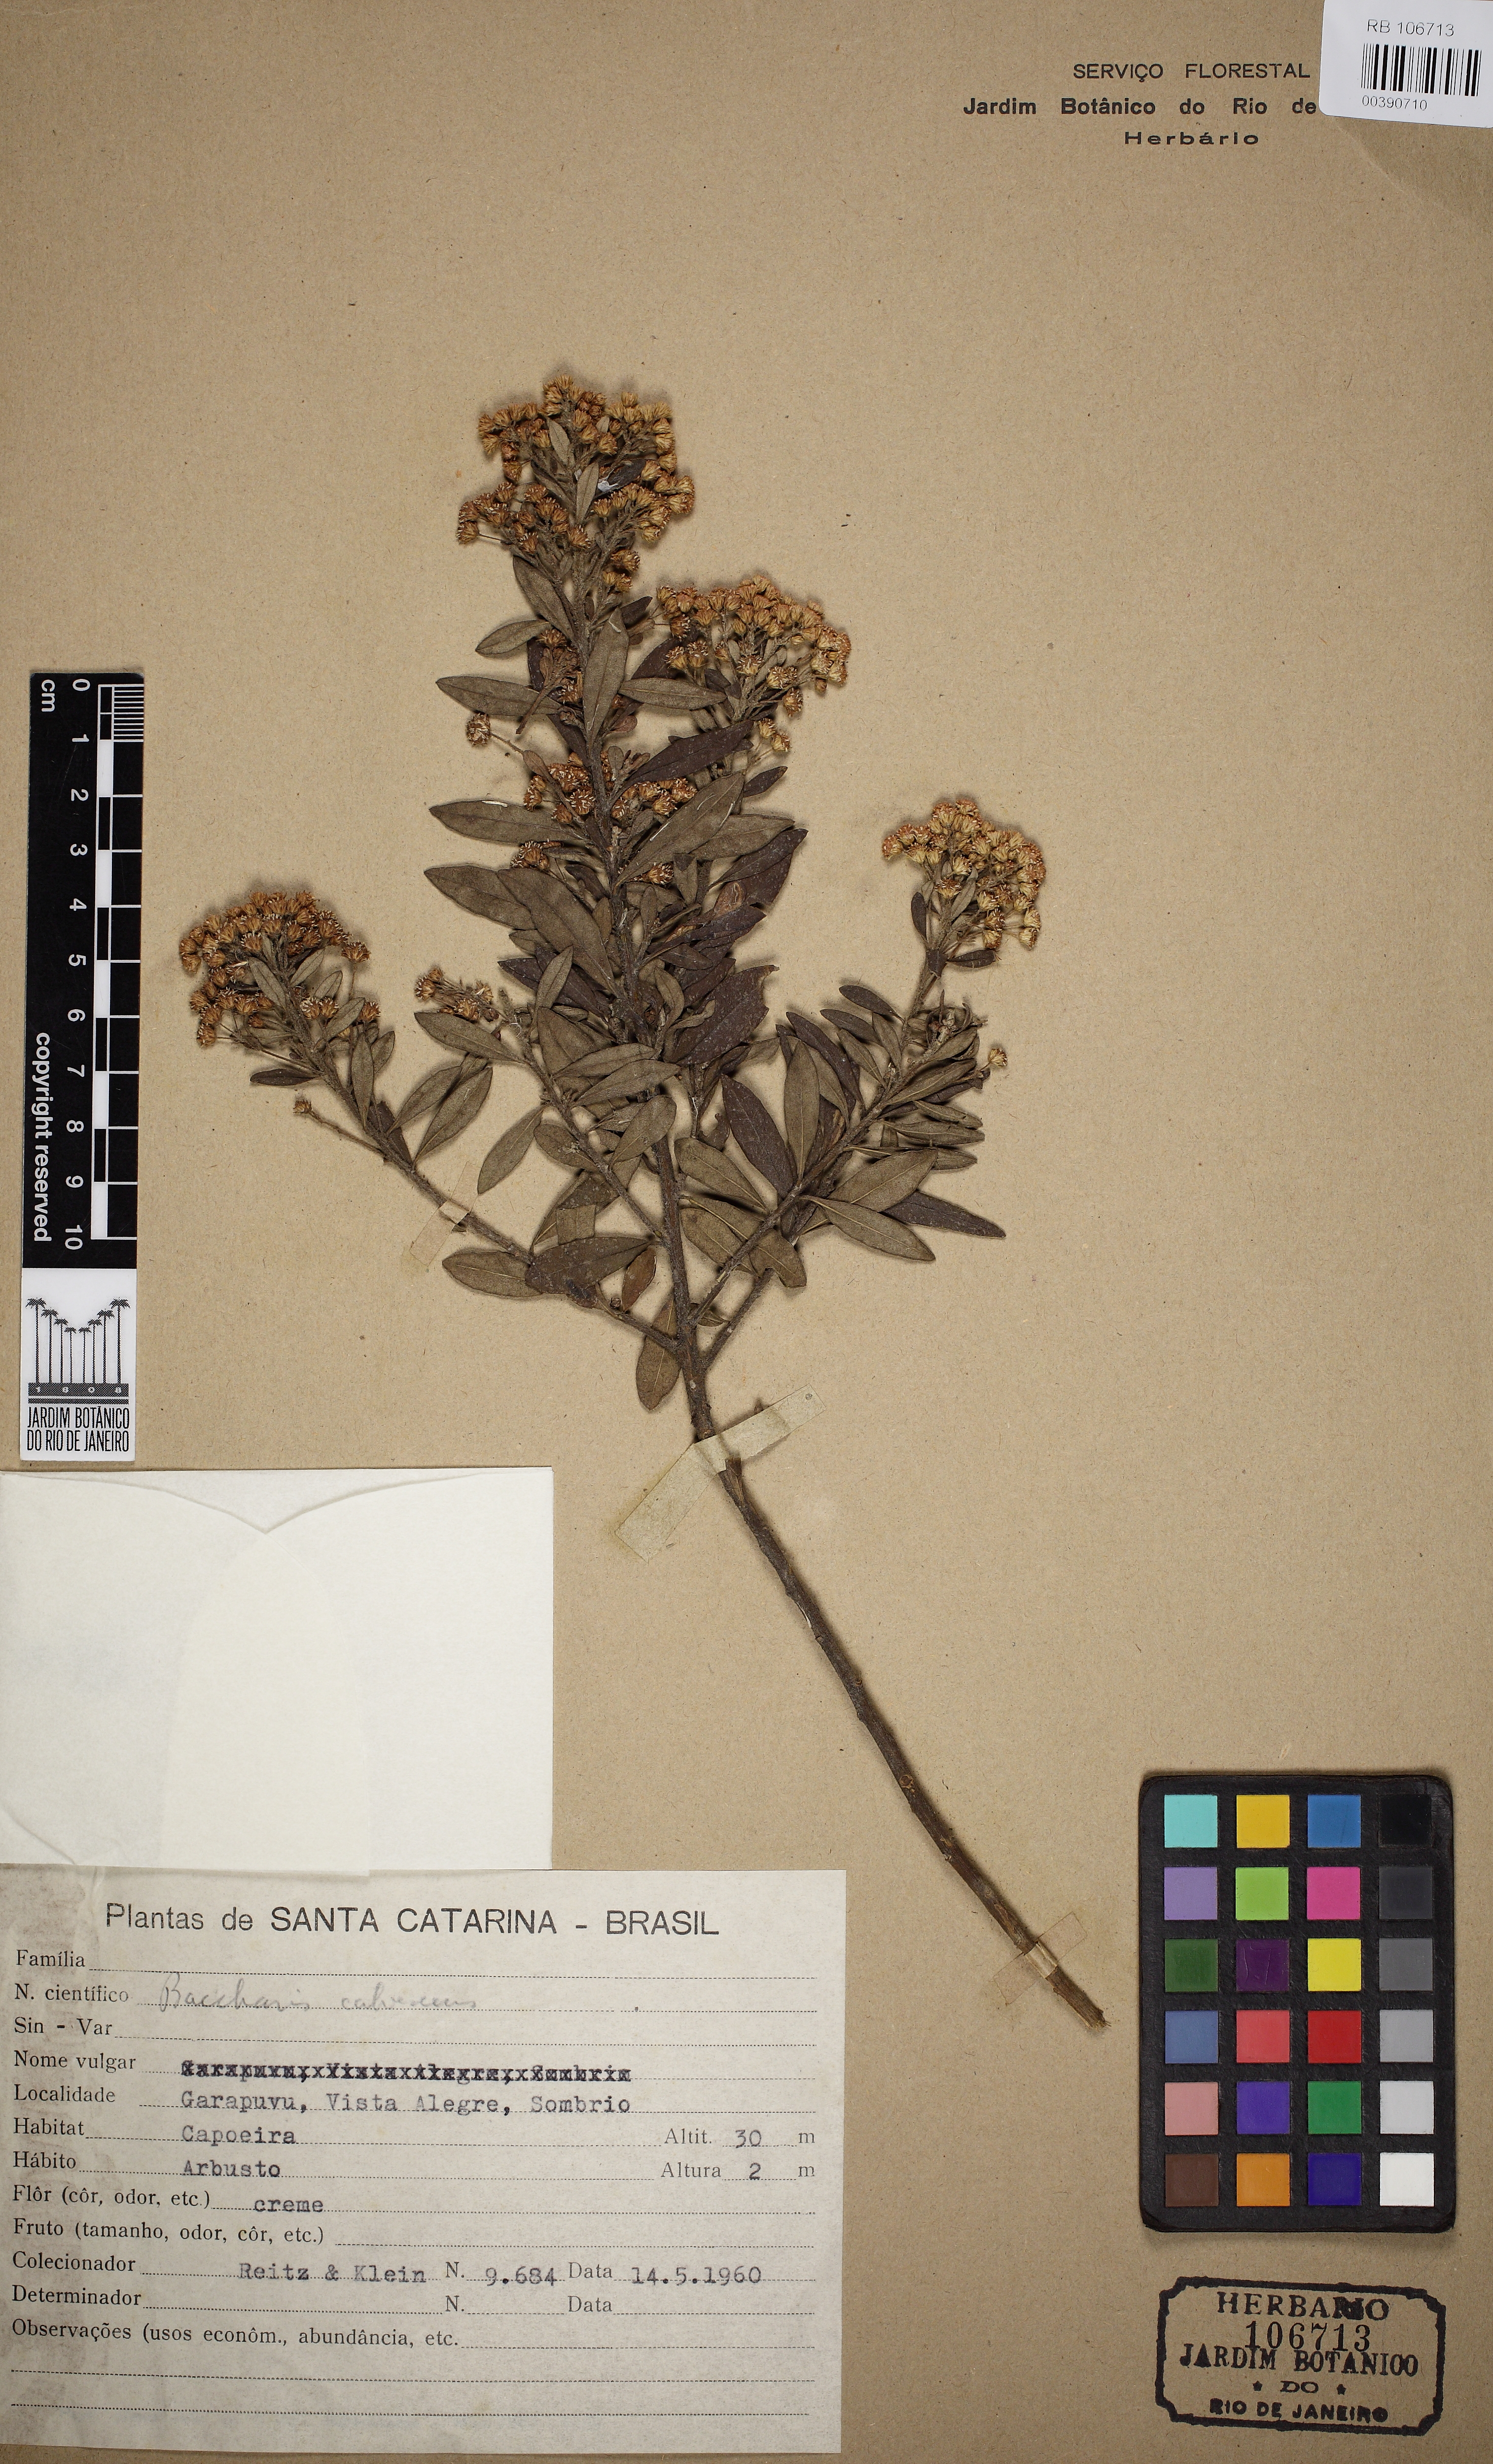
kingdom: Plantae
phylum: Tracheophyta
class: Magnoliopsida
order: Asterales
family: Asteraceae
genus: Baccharis
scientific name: Baccharis calvescens
